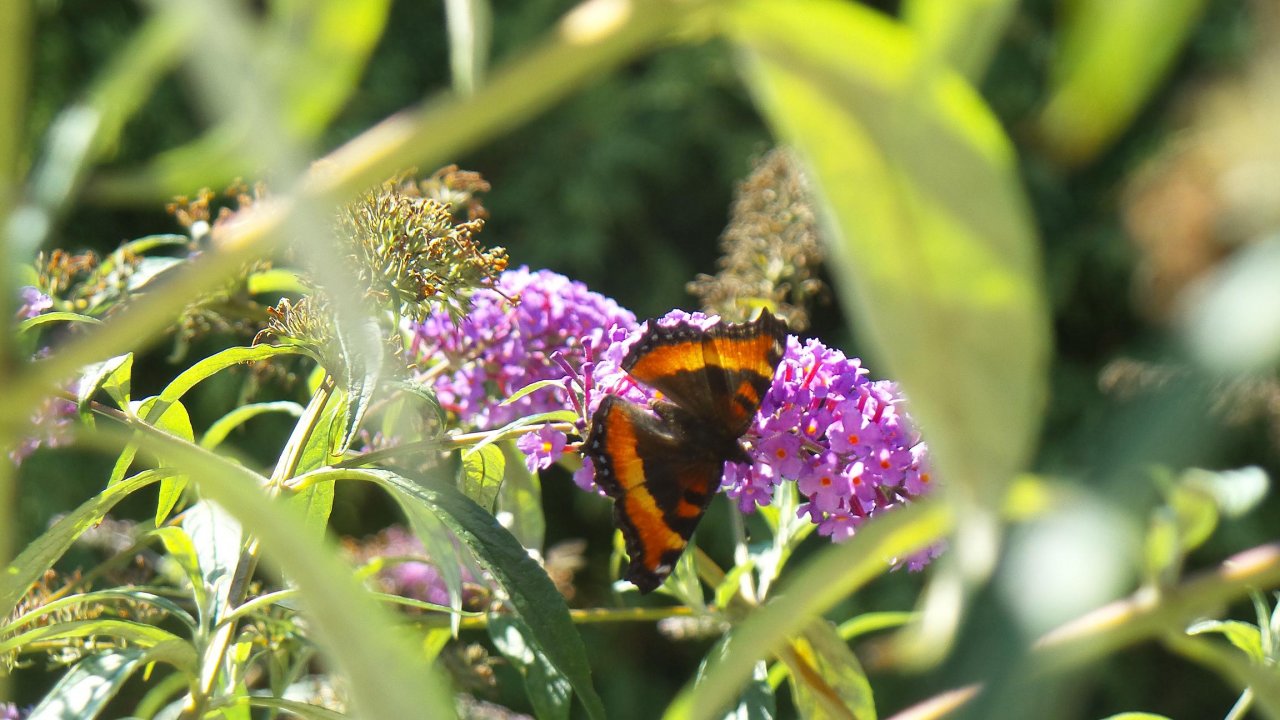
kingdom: Animalia
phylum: Arthropoda
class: Insecta
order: Lepidoptera
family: Nymphalidae
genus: Aglais
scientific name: Aglais milberti
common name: Milbert's Tortoiseshell
